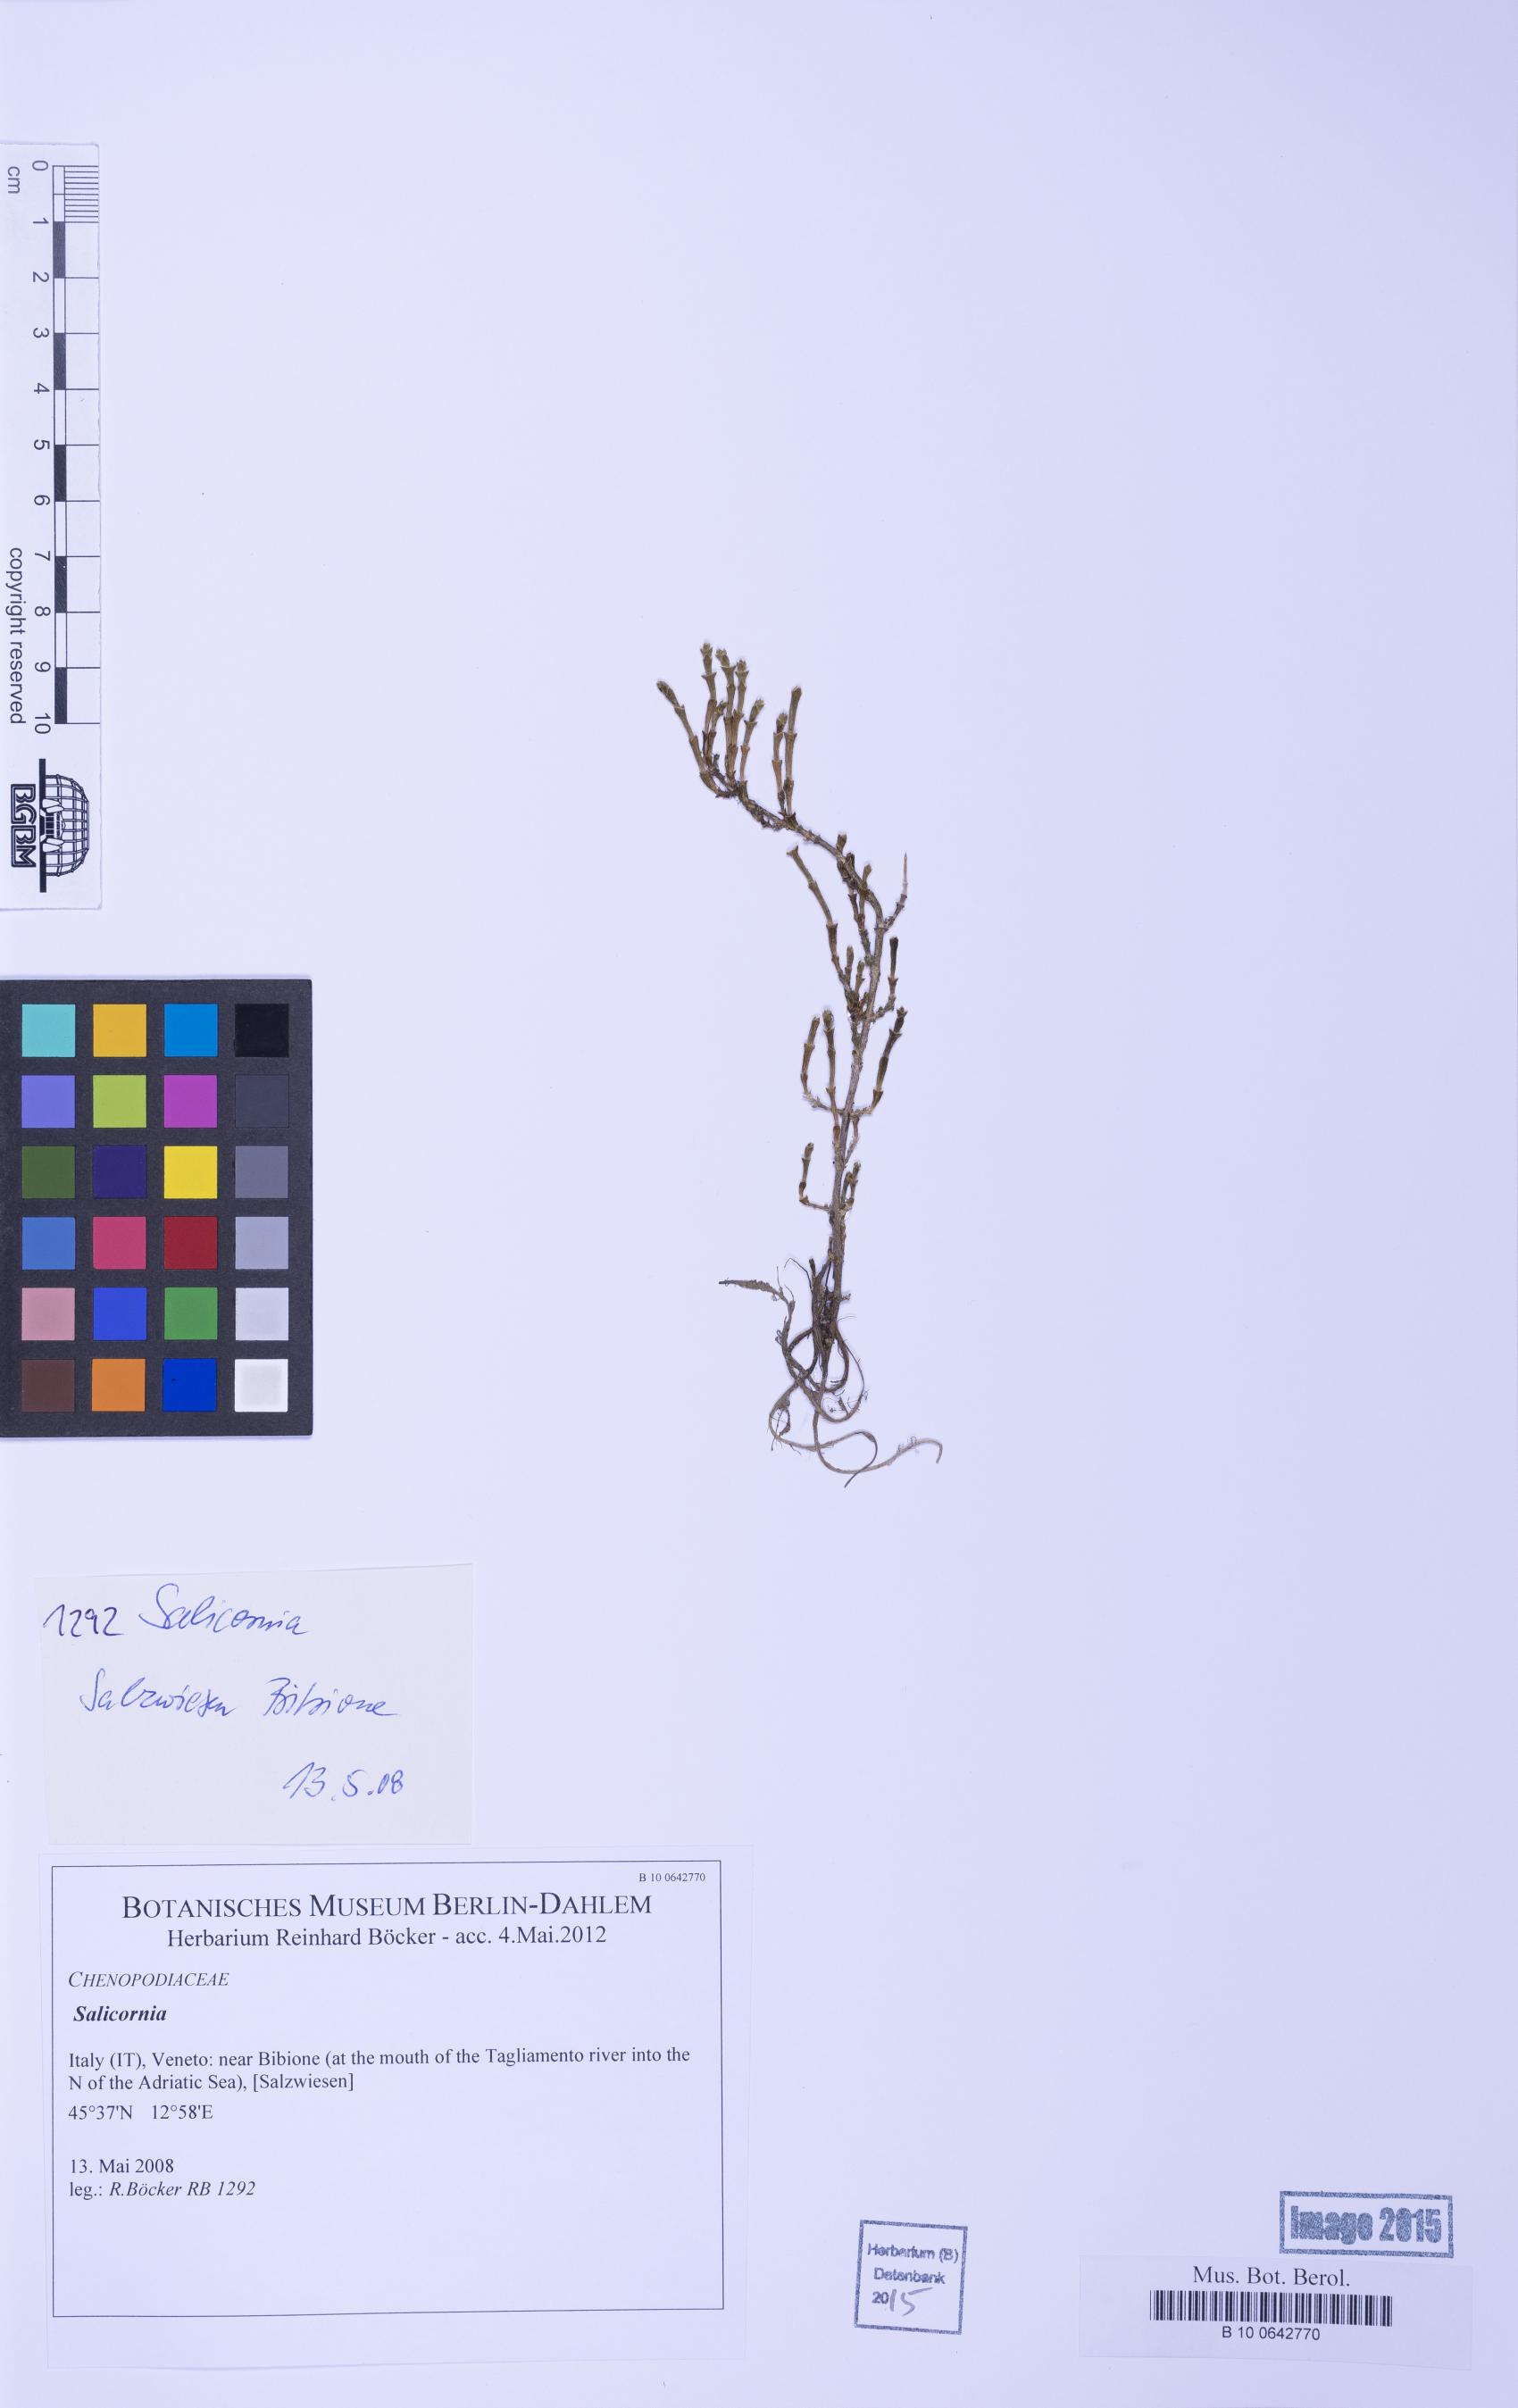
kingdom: Plantae
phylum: Tracheophyta
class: Magnoliopsida
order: Caryophyllales
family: Amaranthaceae
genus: Salicornia
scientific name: Salicornia
